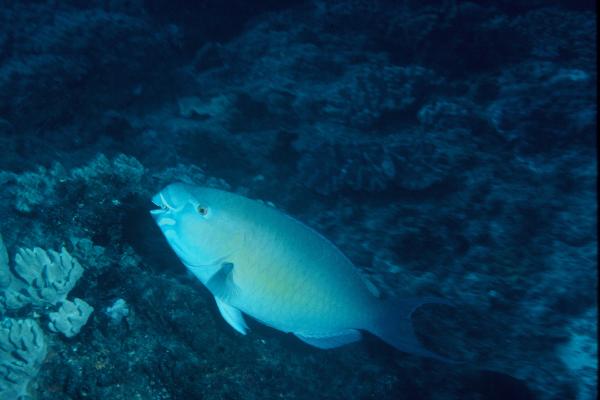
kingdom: Animalia
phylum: Chordata
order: Perciformes
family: Scaridae
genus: Scarus
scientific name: Scarus rubroviolaceus
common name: Ember parrotfish
